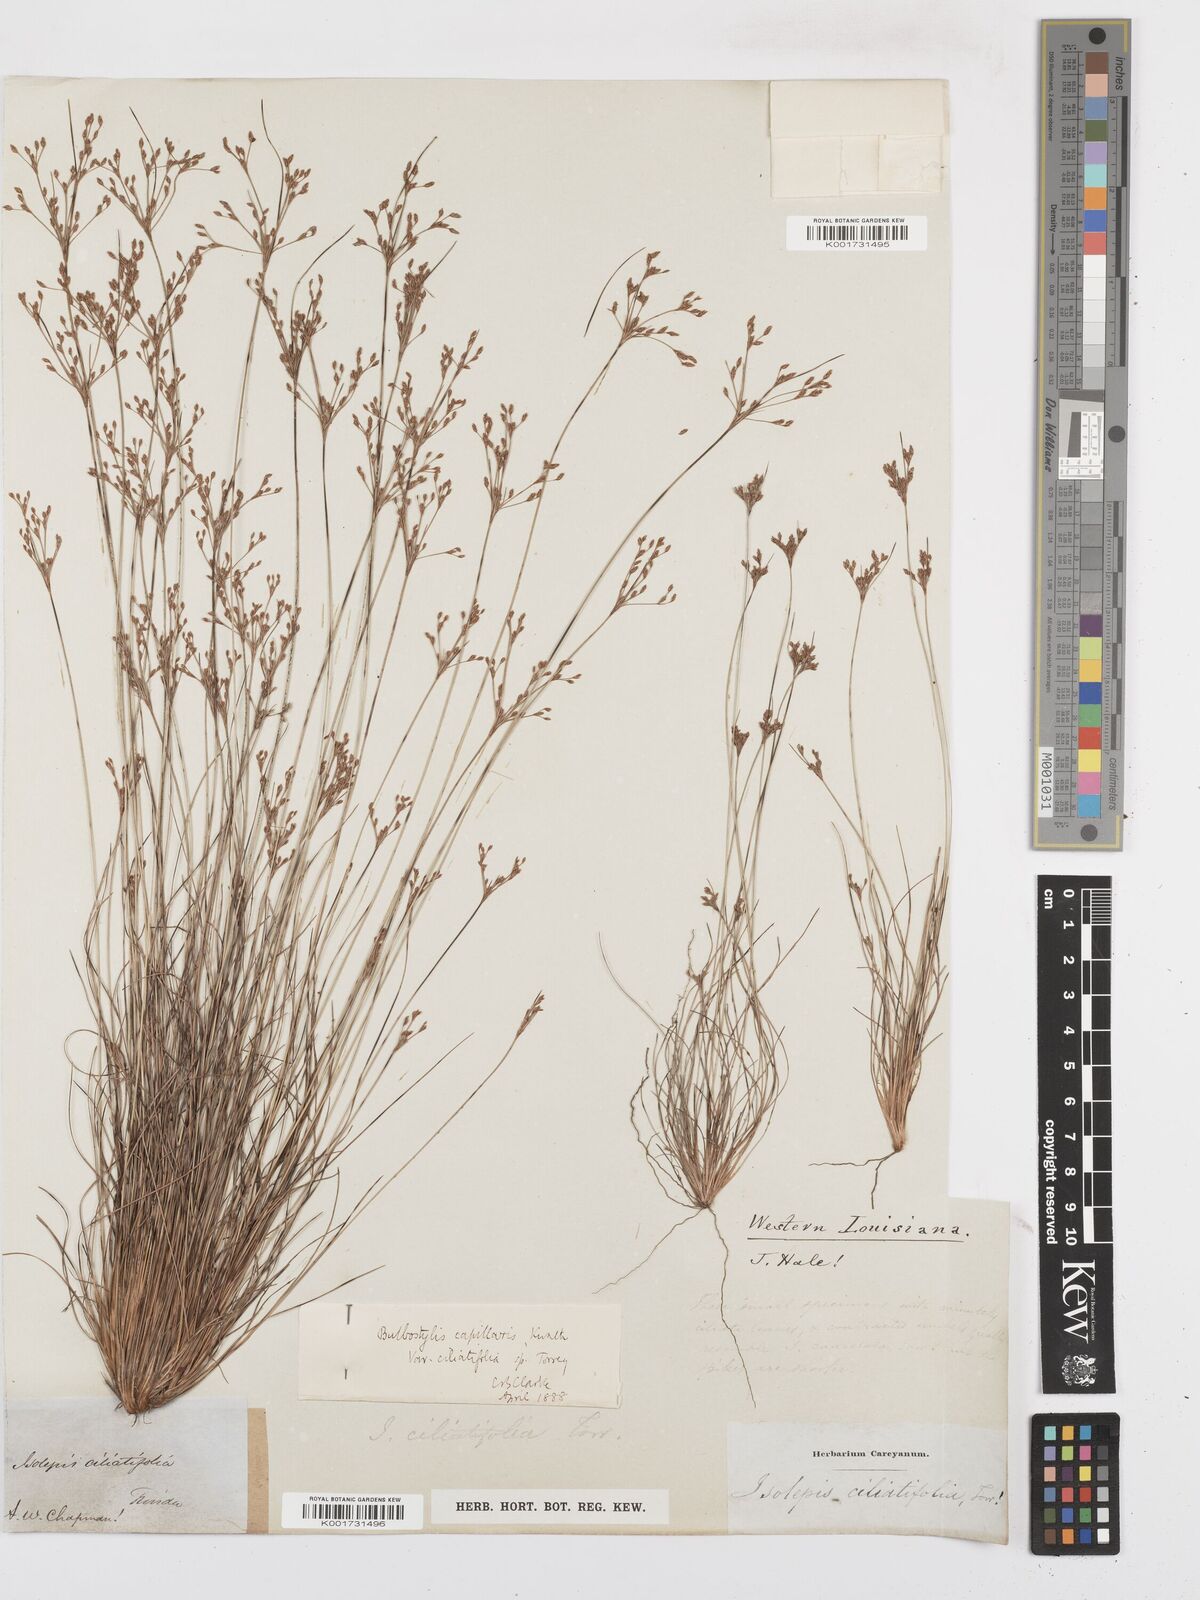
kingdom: Plantae
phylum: Tracheophyta
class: Liliopsida
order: Poales
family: Cyperaceae
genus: Bulbostylis
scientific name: Bulbostylis ciliatifolia
